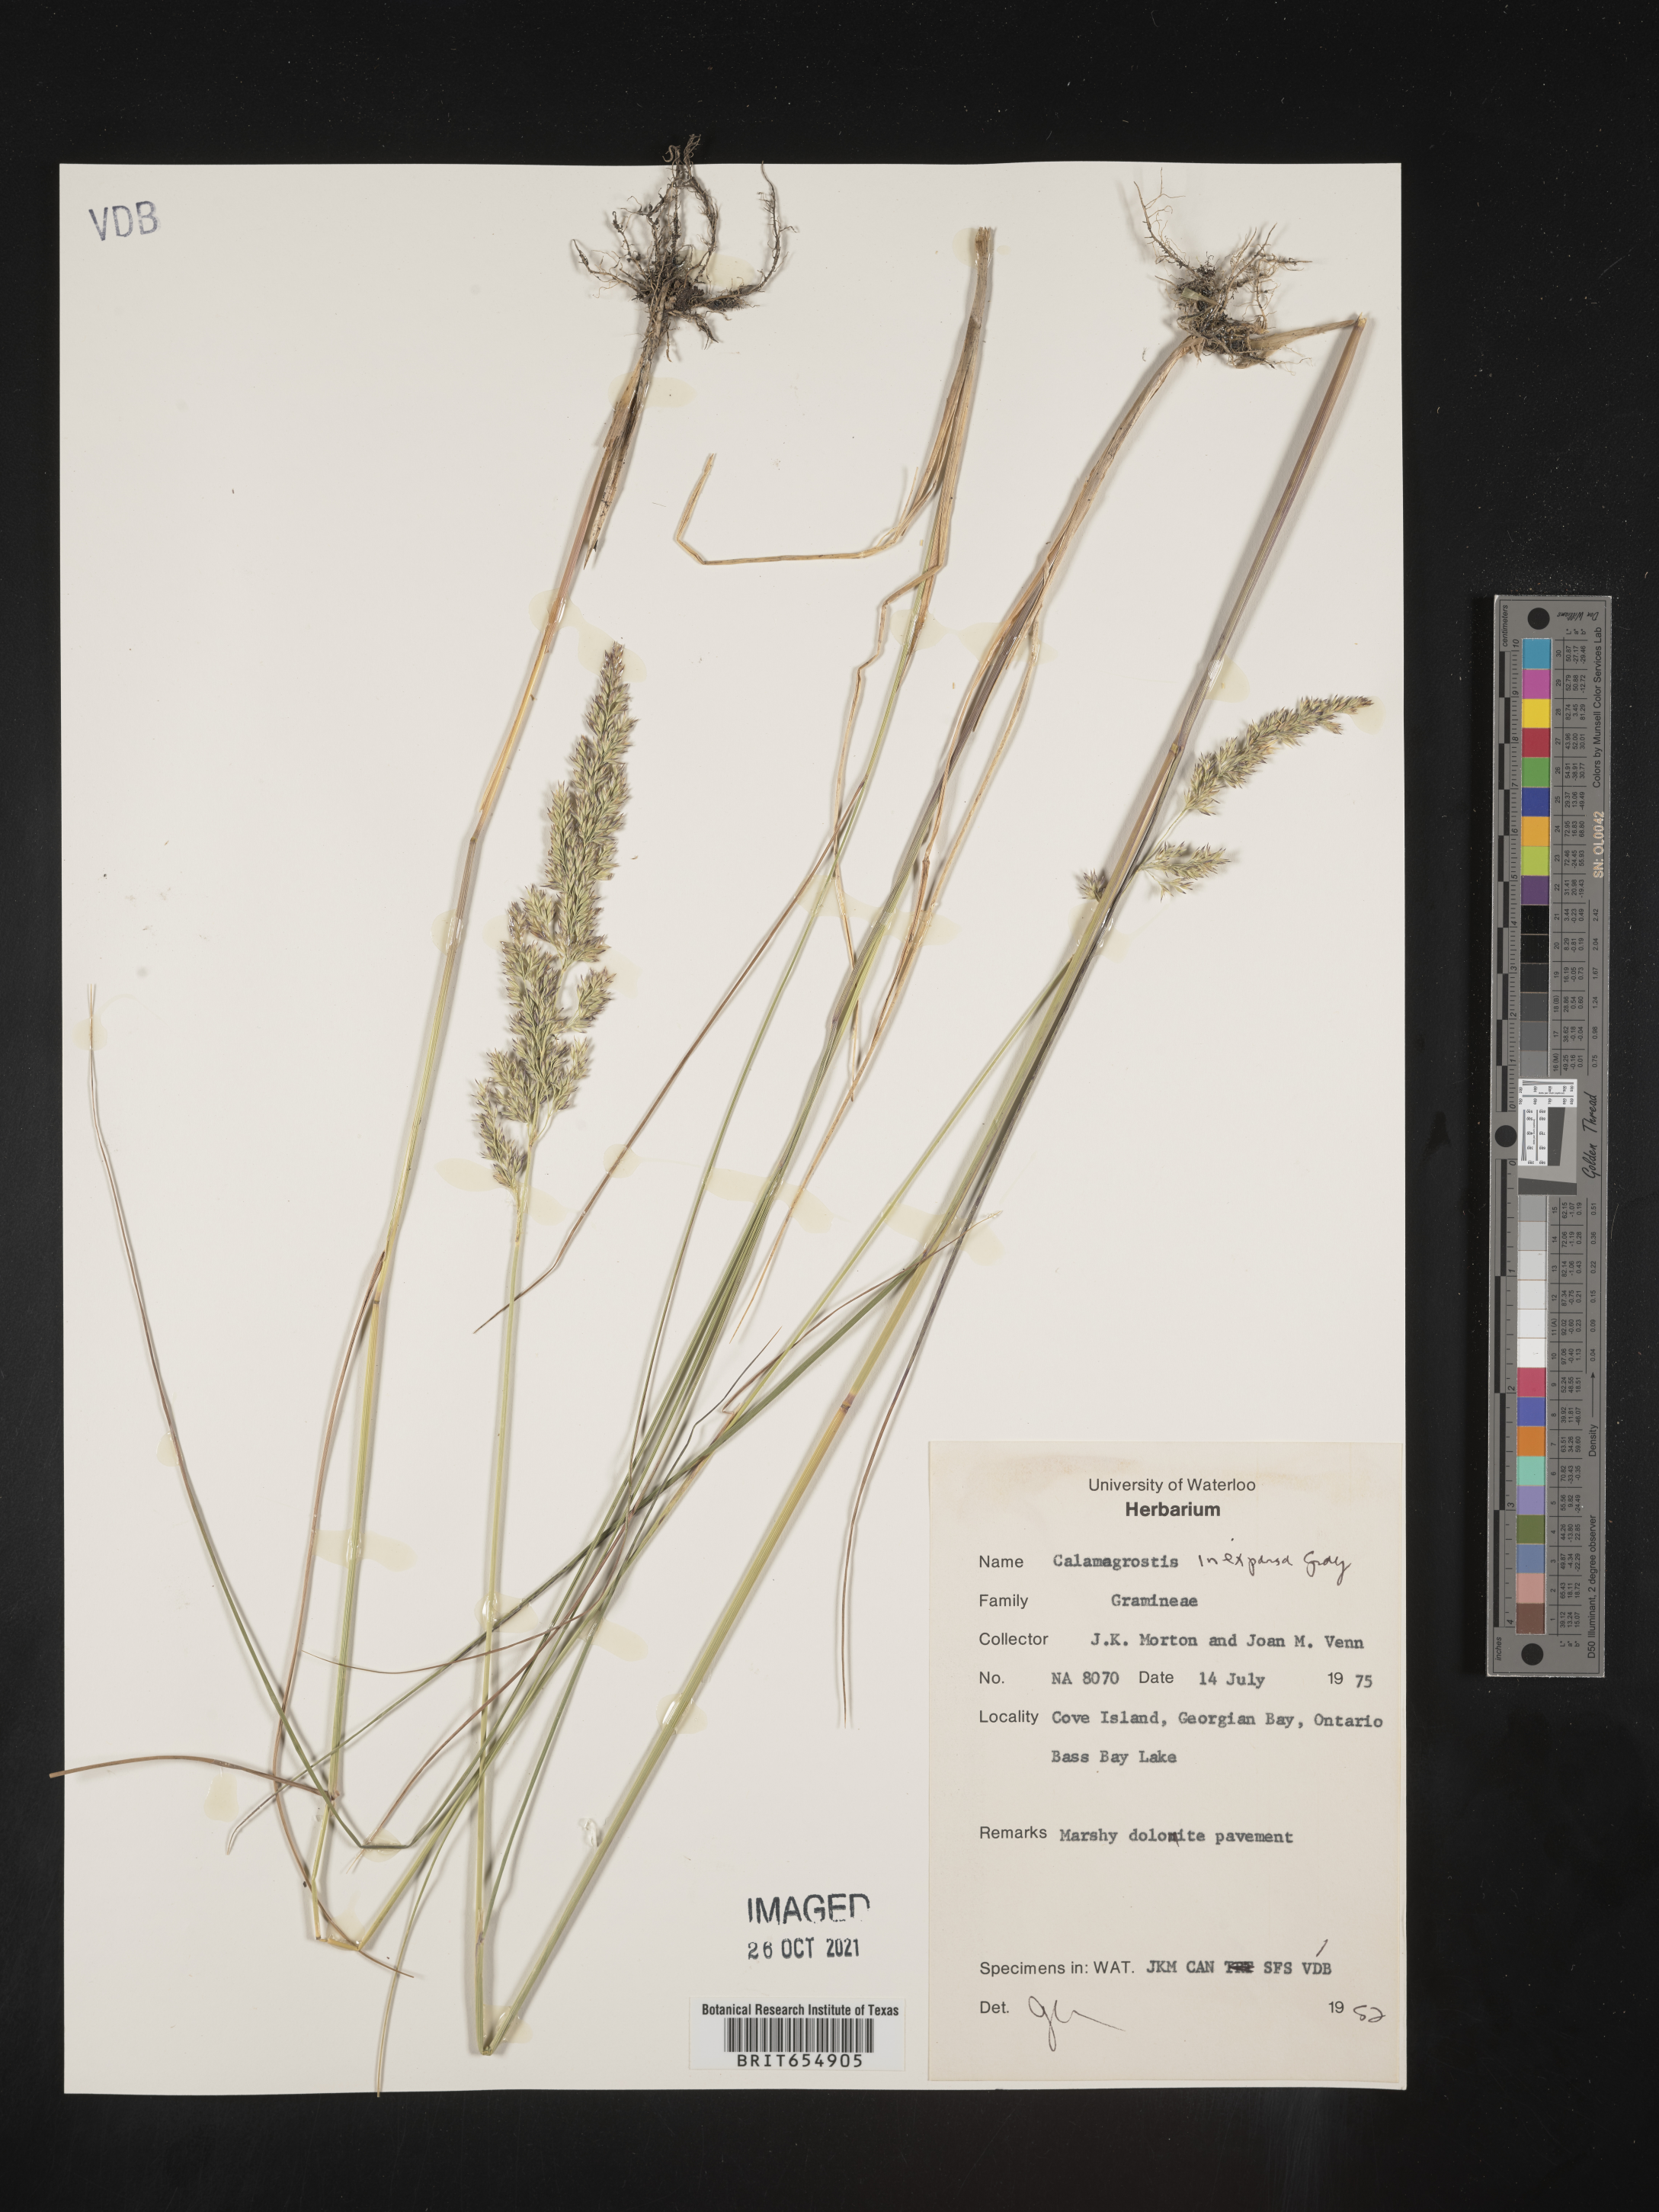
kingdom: Plantae
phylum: Tracheophyta
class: Liliopsida
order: Poales
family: Poaceae
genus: Calamagrostis
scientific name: Calamagrostis
